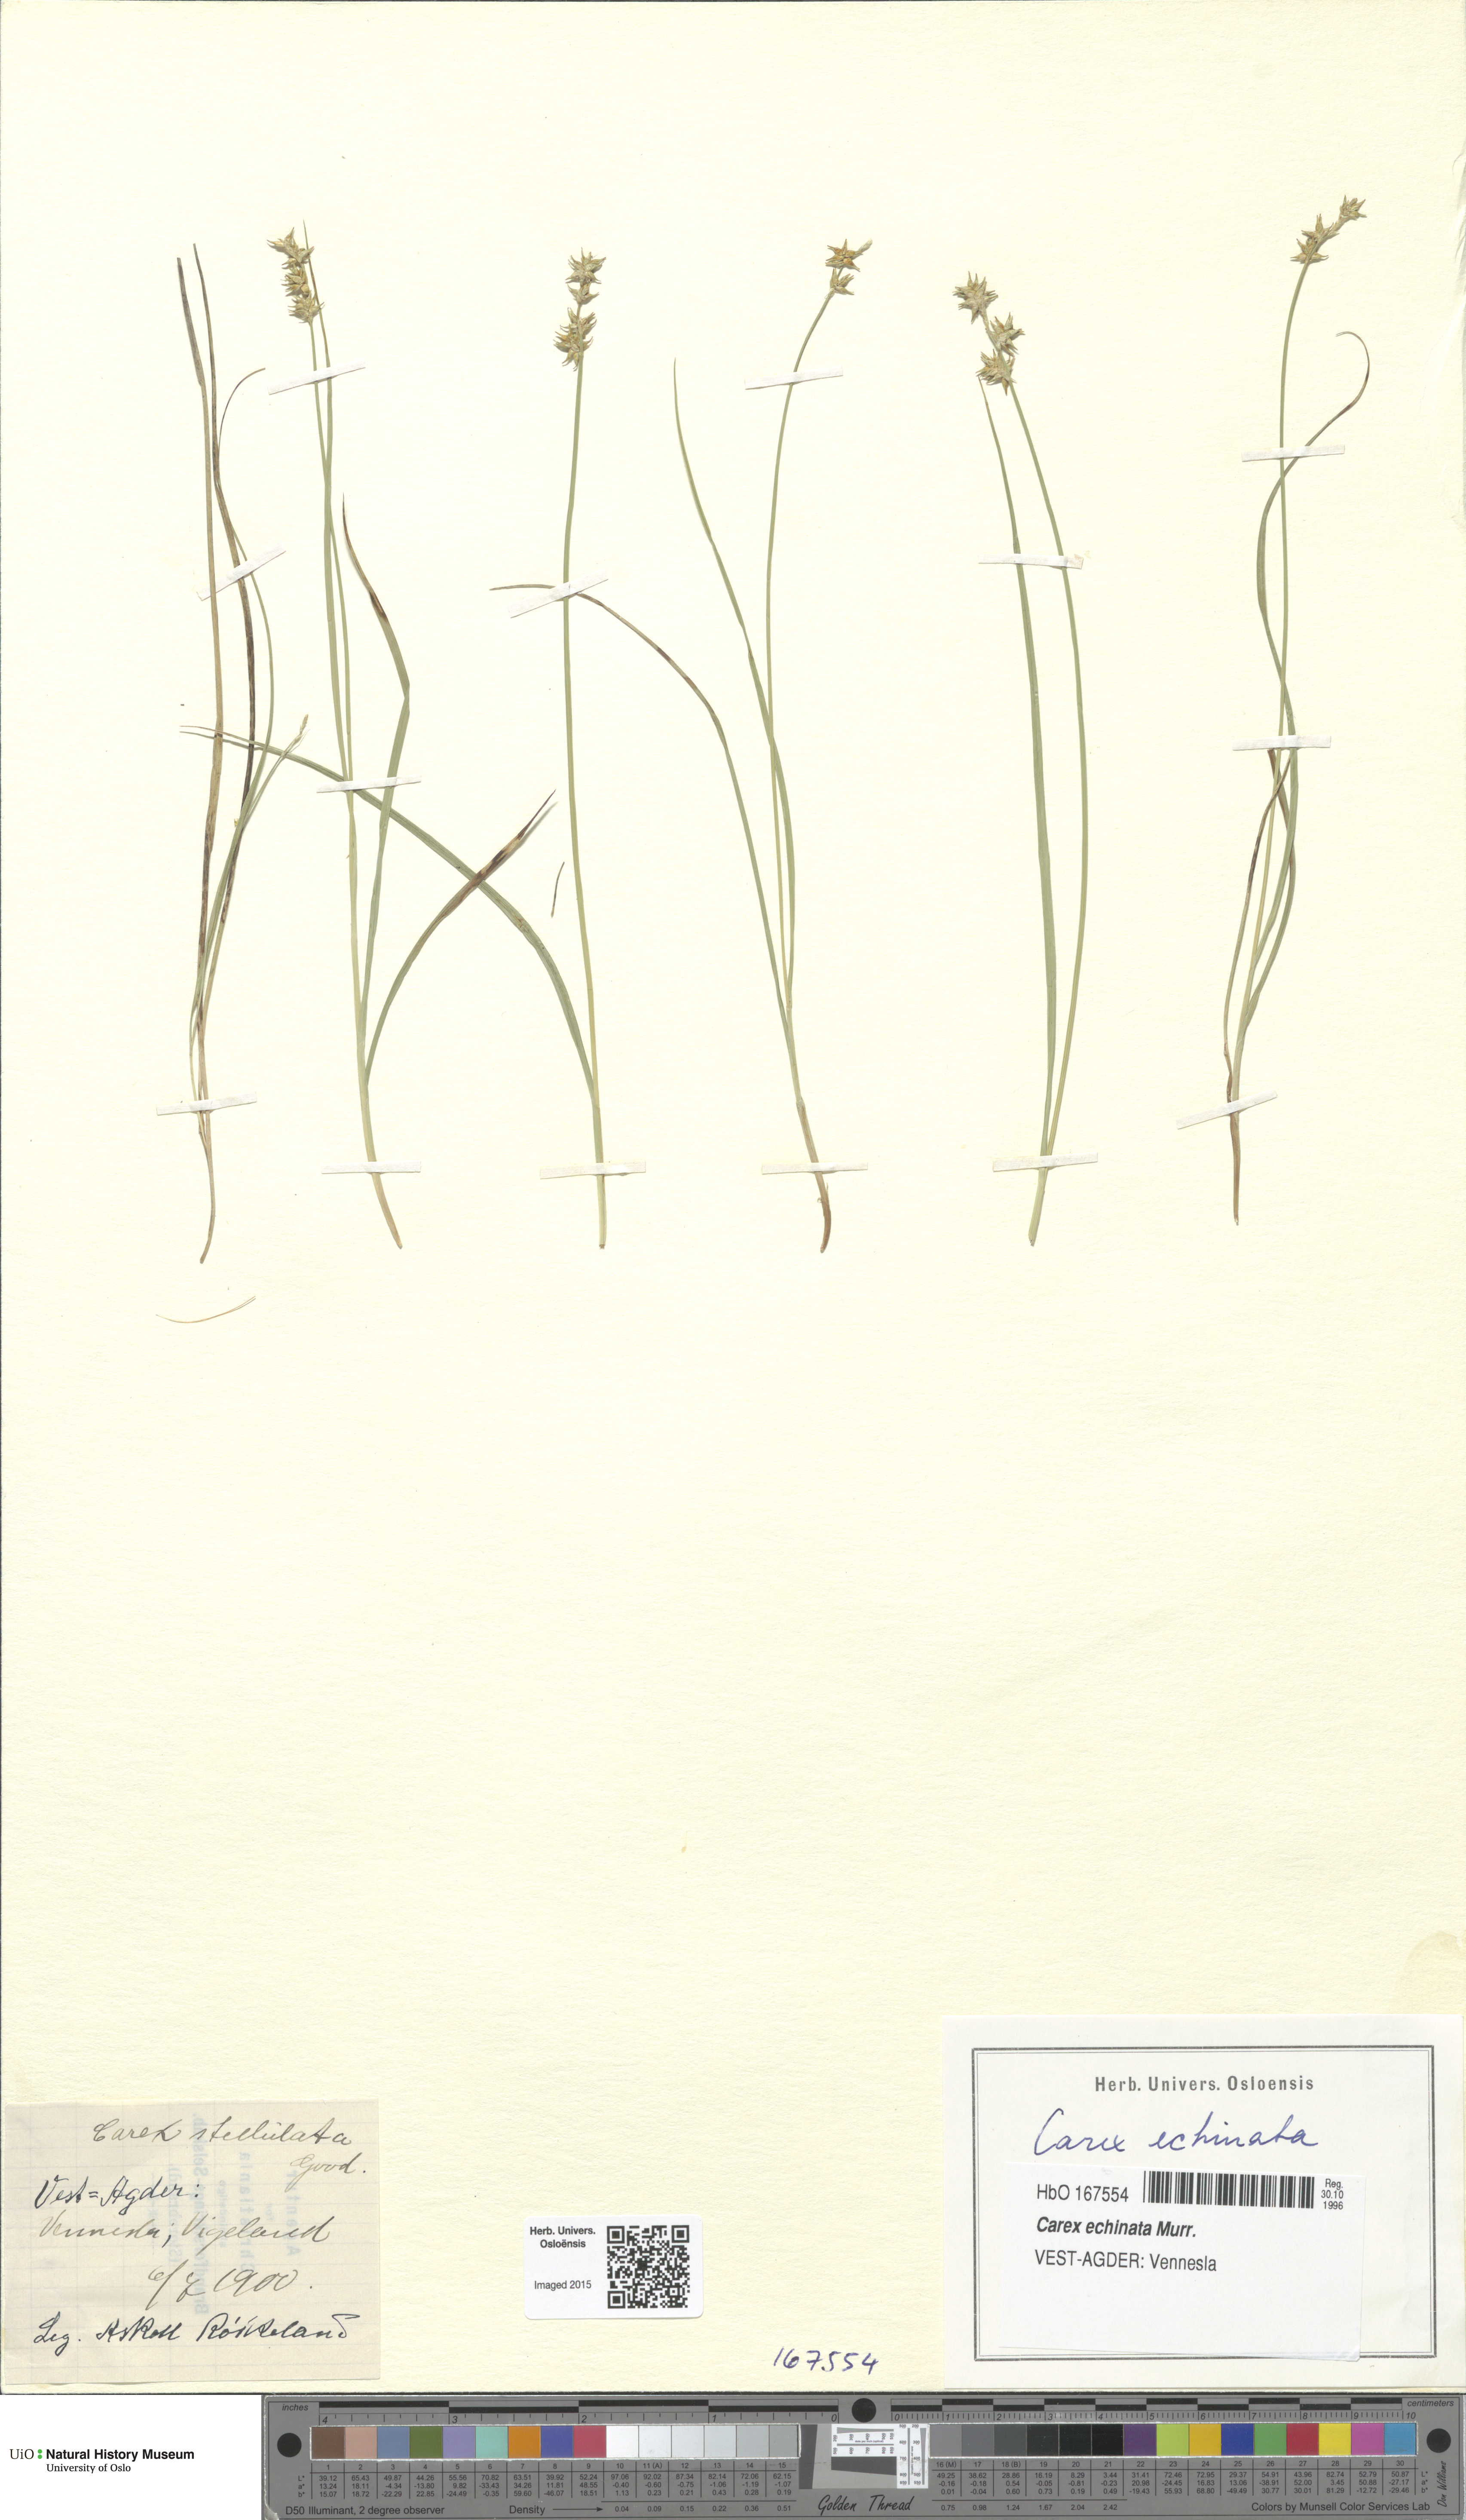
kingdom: Plantae
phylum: Tracheophyta
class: Liliopsida
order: Poales
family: Cyperaceae
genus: Carex
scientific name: Carex echinata
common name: Star sedge
